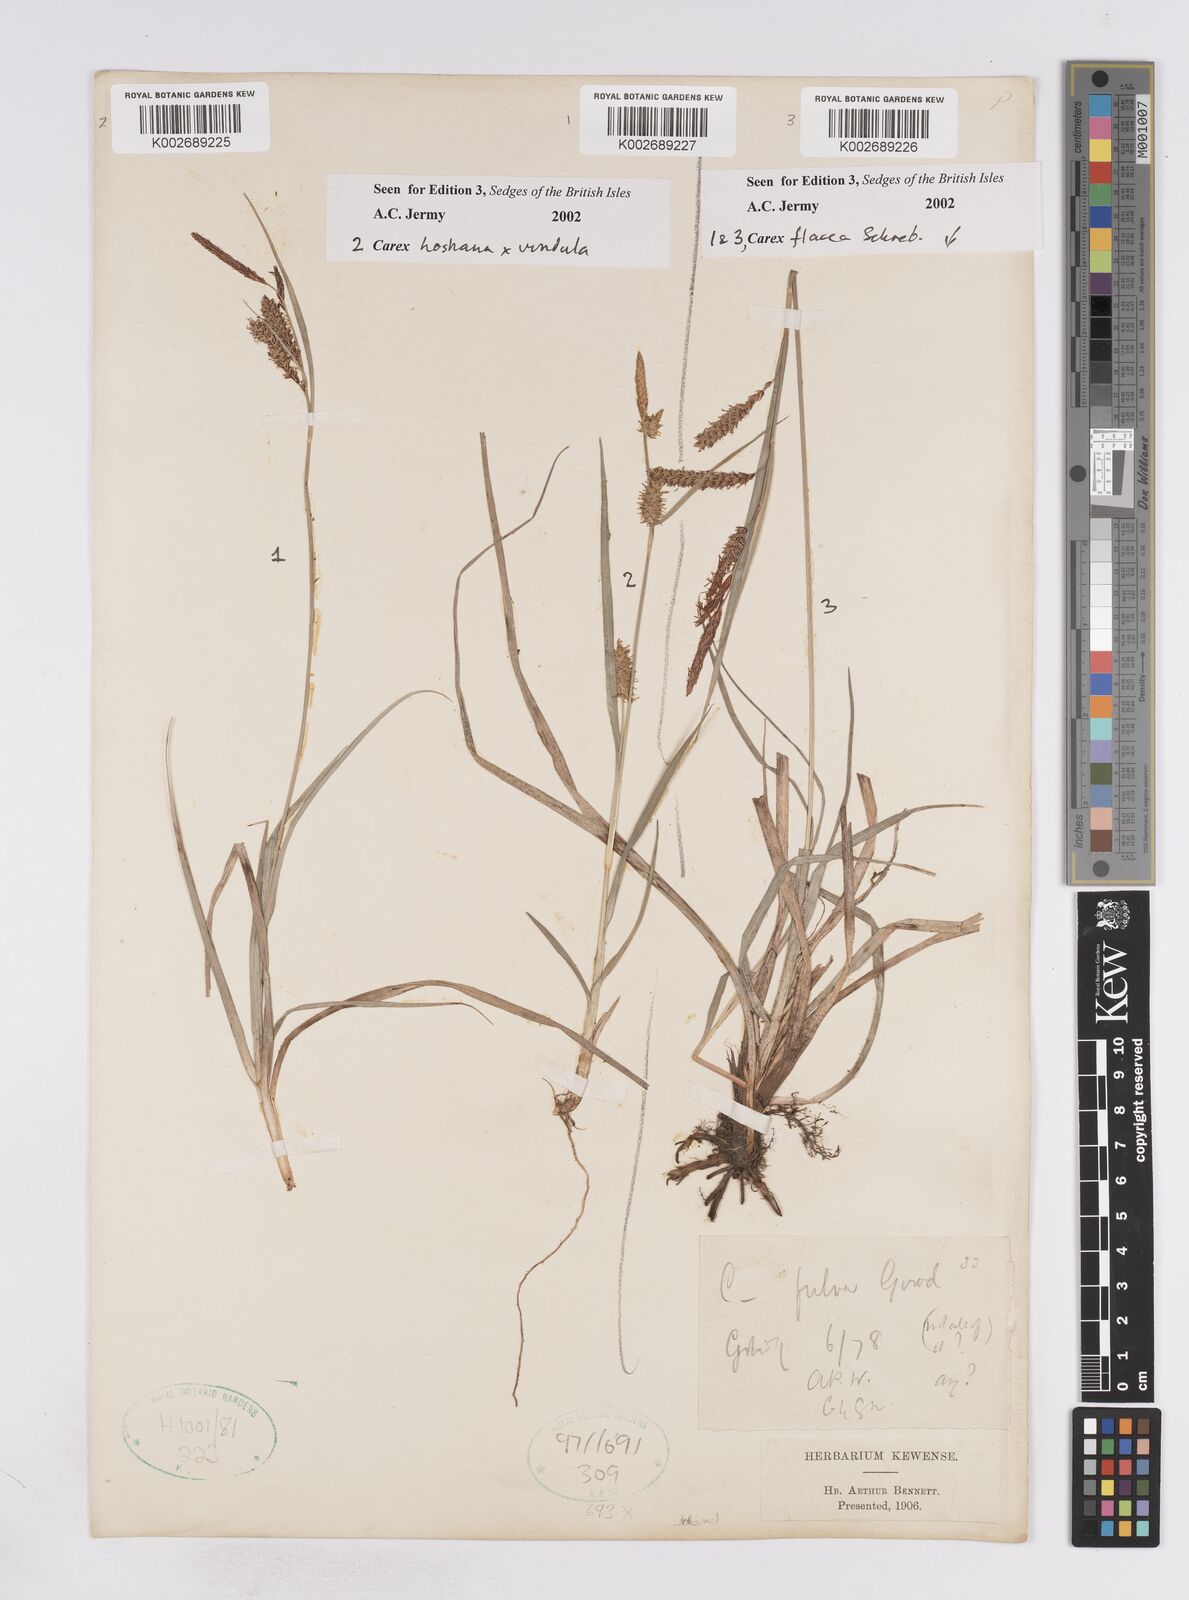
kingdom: Plantae
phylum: Tracheophyta
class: Liliopsida
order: Poales
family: Cyperaceae
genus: Carex
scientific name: Carex flacca
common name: Glaucous sedge
